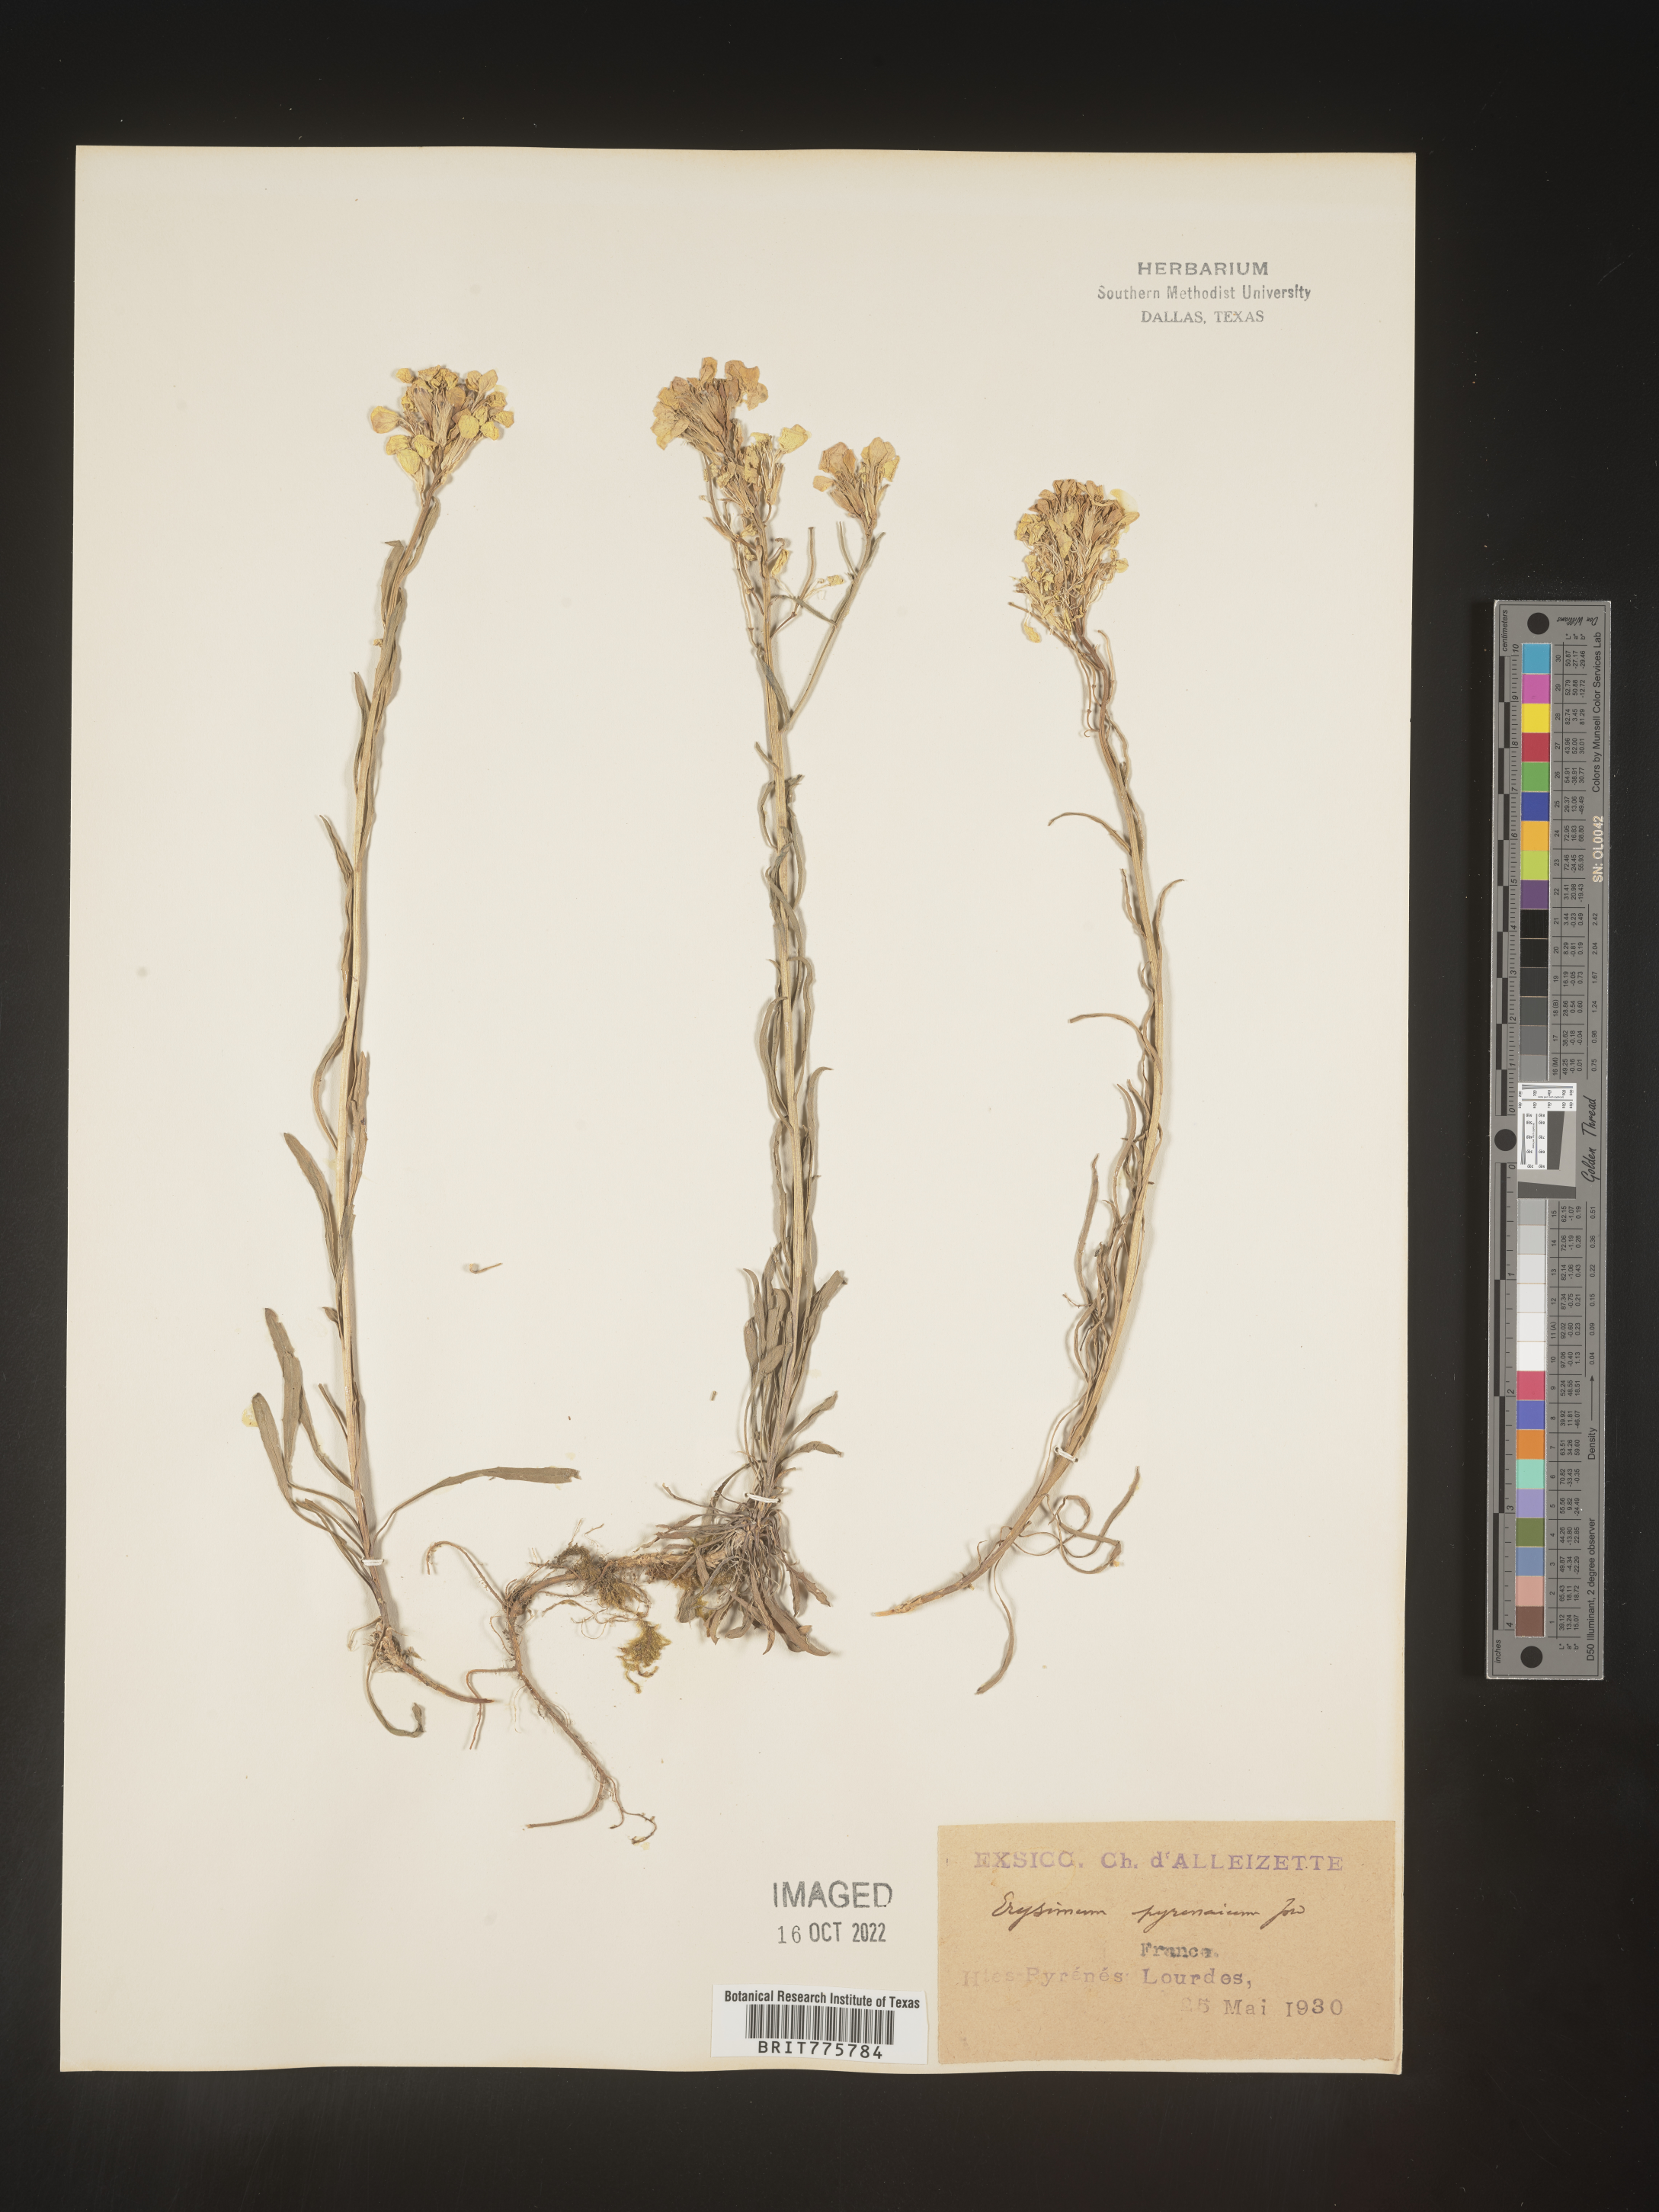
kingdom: Plantae
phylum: Tracheophyta
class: Magnoliopsida
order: Brassicales
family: Brassicaceae
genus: Erysimum
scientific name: Erysimum
